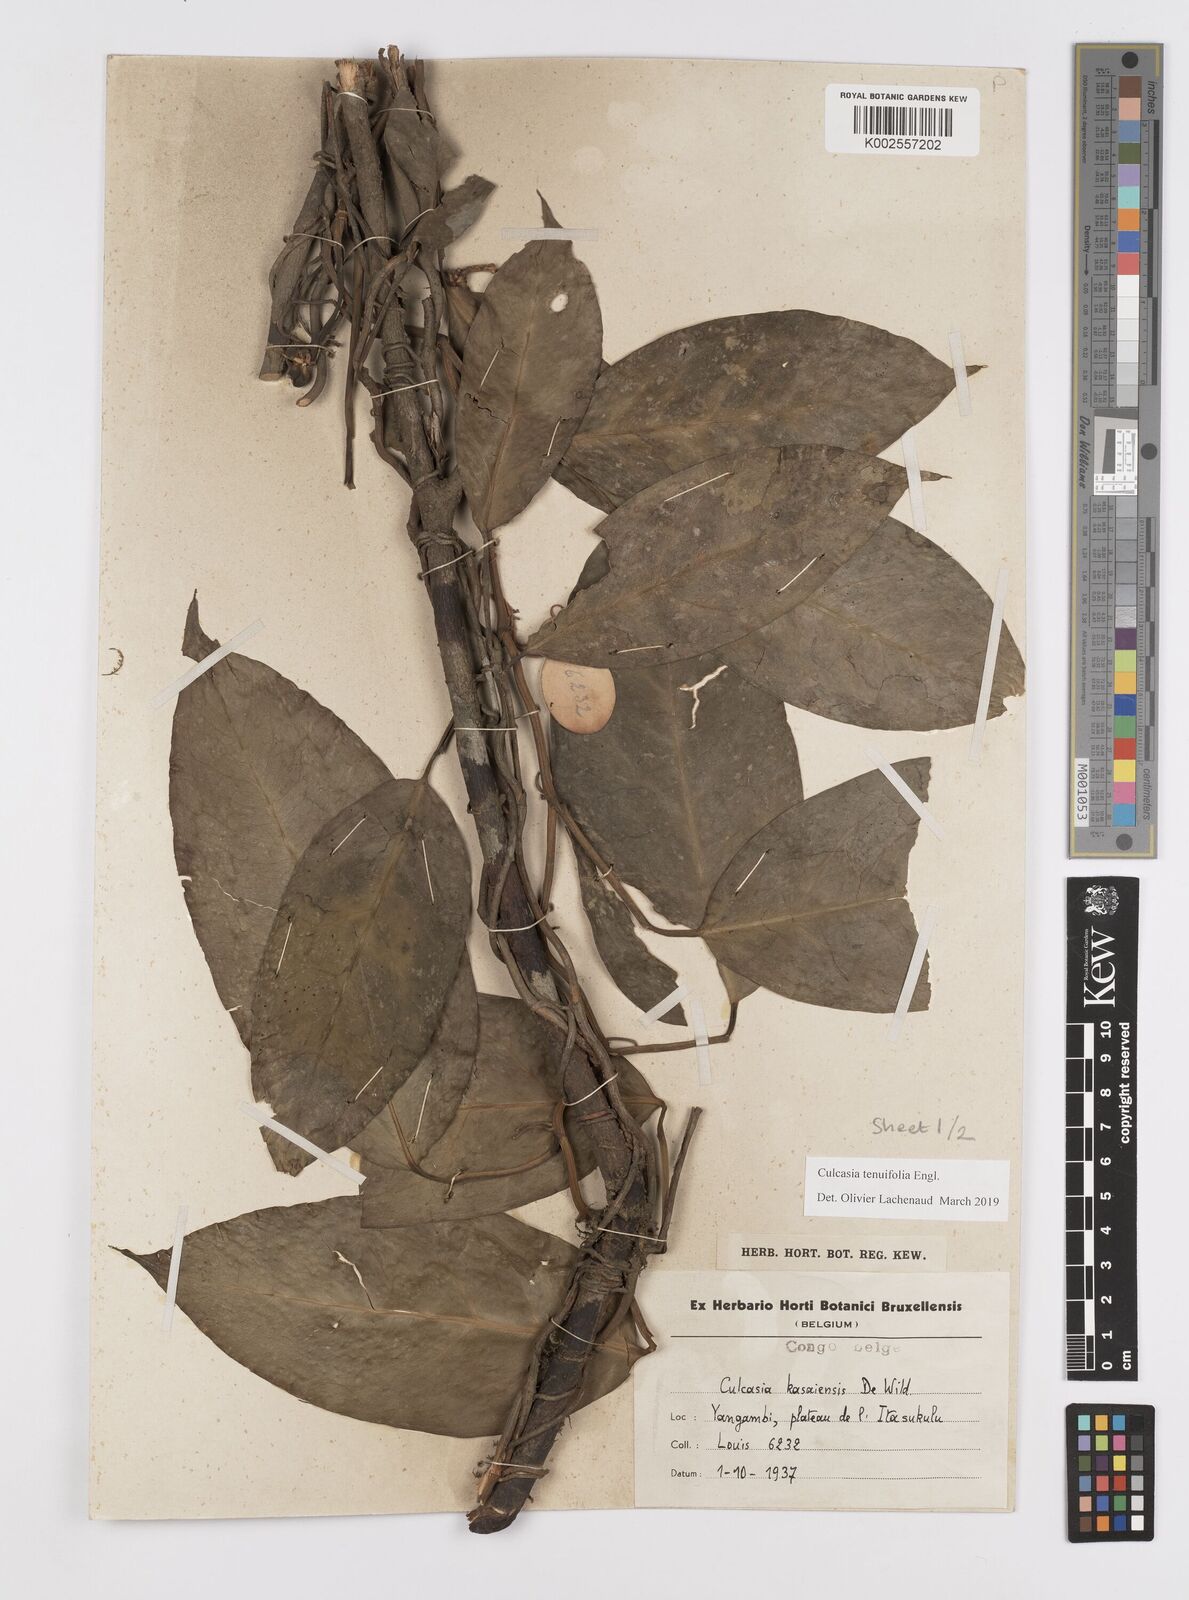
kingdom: Plantae
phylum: Tracheophyta
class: Liliopsida
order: Alismatales
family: Araceae
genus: Culcasia
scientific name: Culcasia tenuifolia
